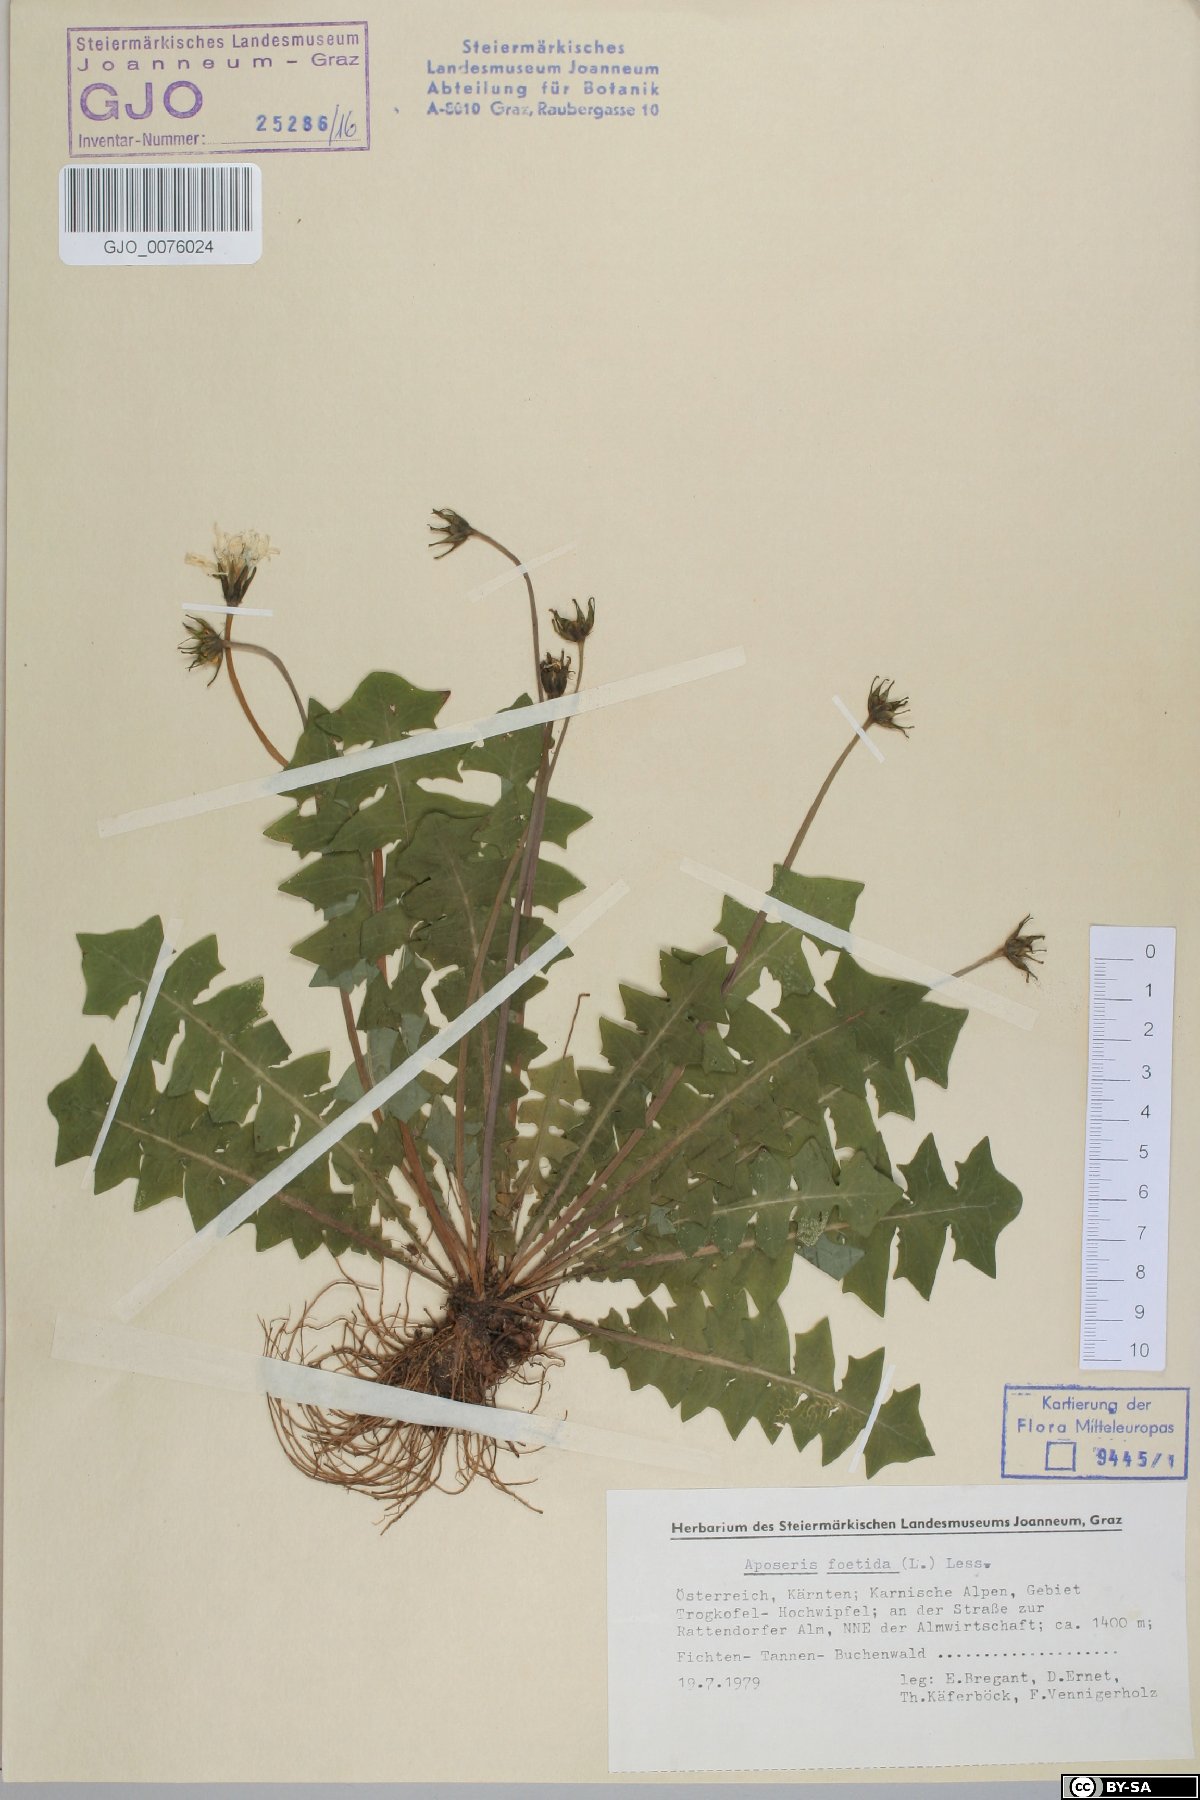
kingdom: Plantae
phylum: Tracheophyta
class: Magnoliopsida
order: Asterales
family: Asteraceae
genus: Aposeris
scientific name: Aposeris foetida
